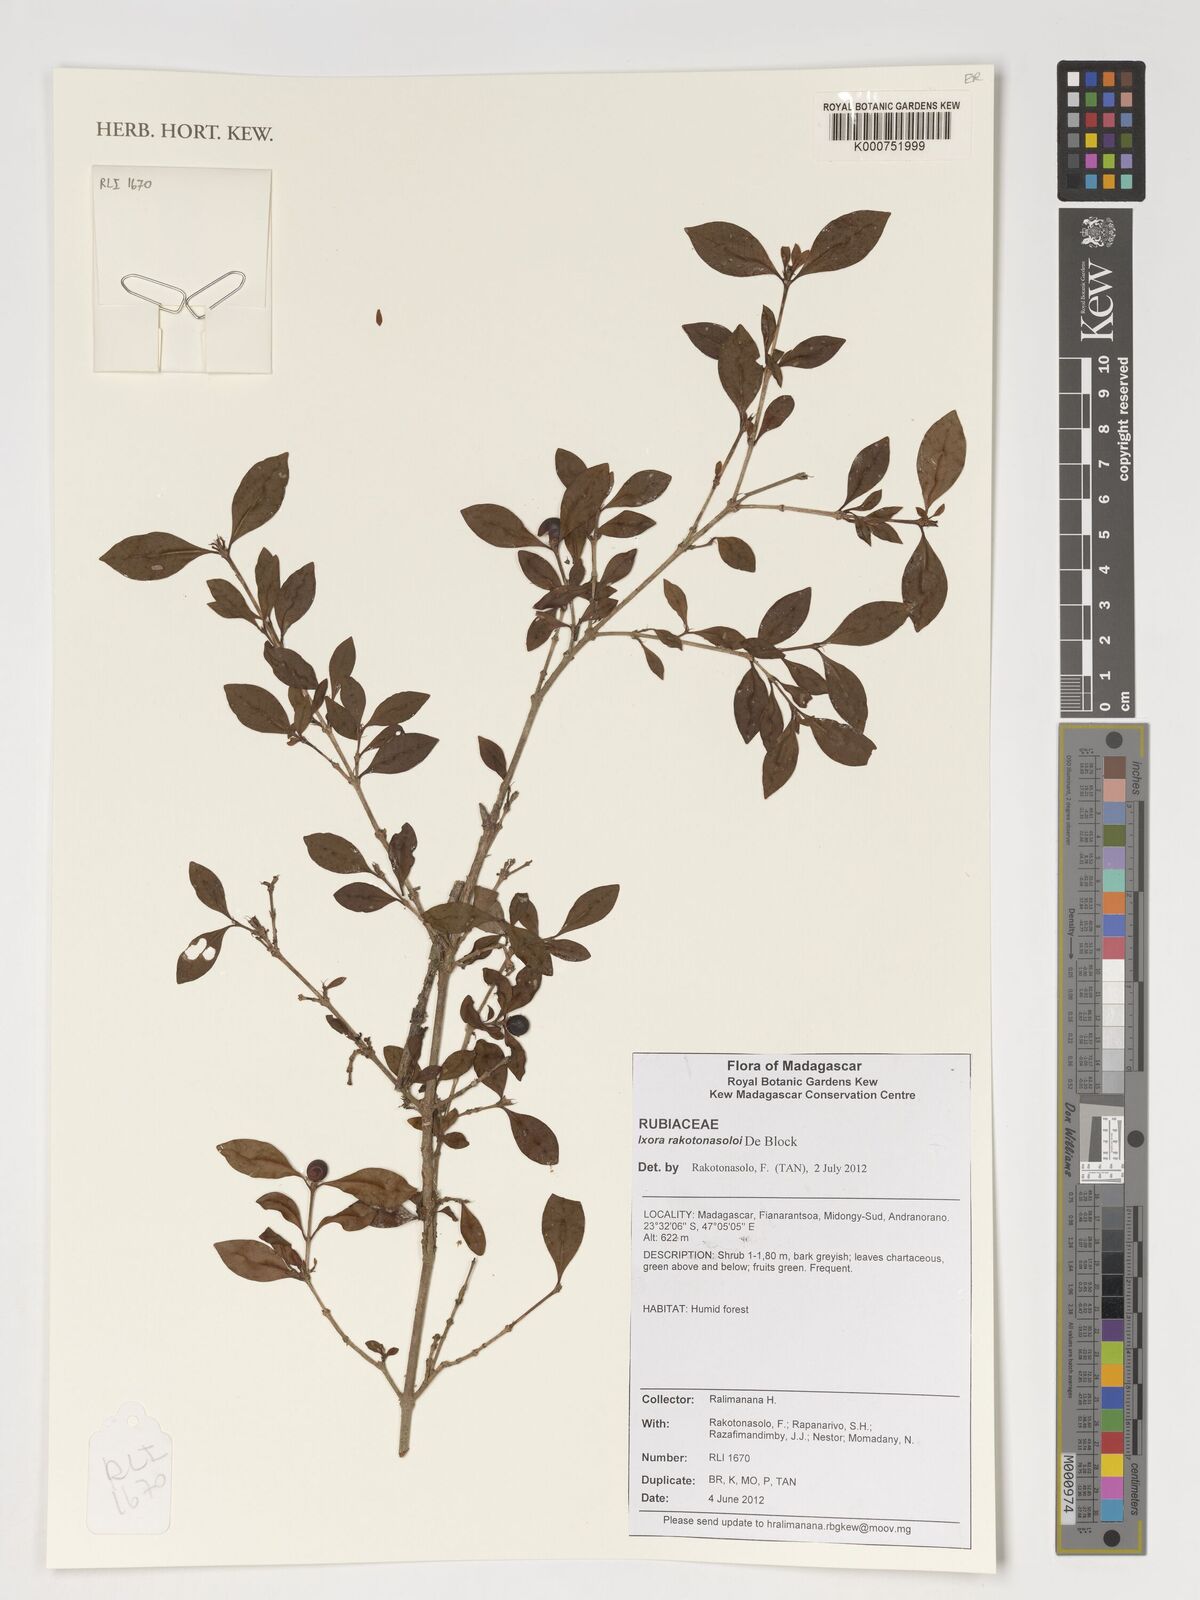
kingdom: Plantae
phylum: Tracheophyta
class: Magnoliopsida
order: Gentianales
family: Rubiaceae
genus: Ixora
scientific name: Ixora rakotonasoloi
